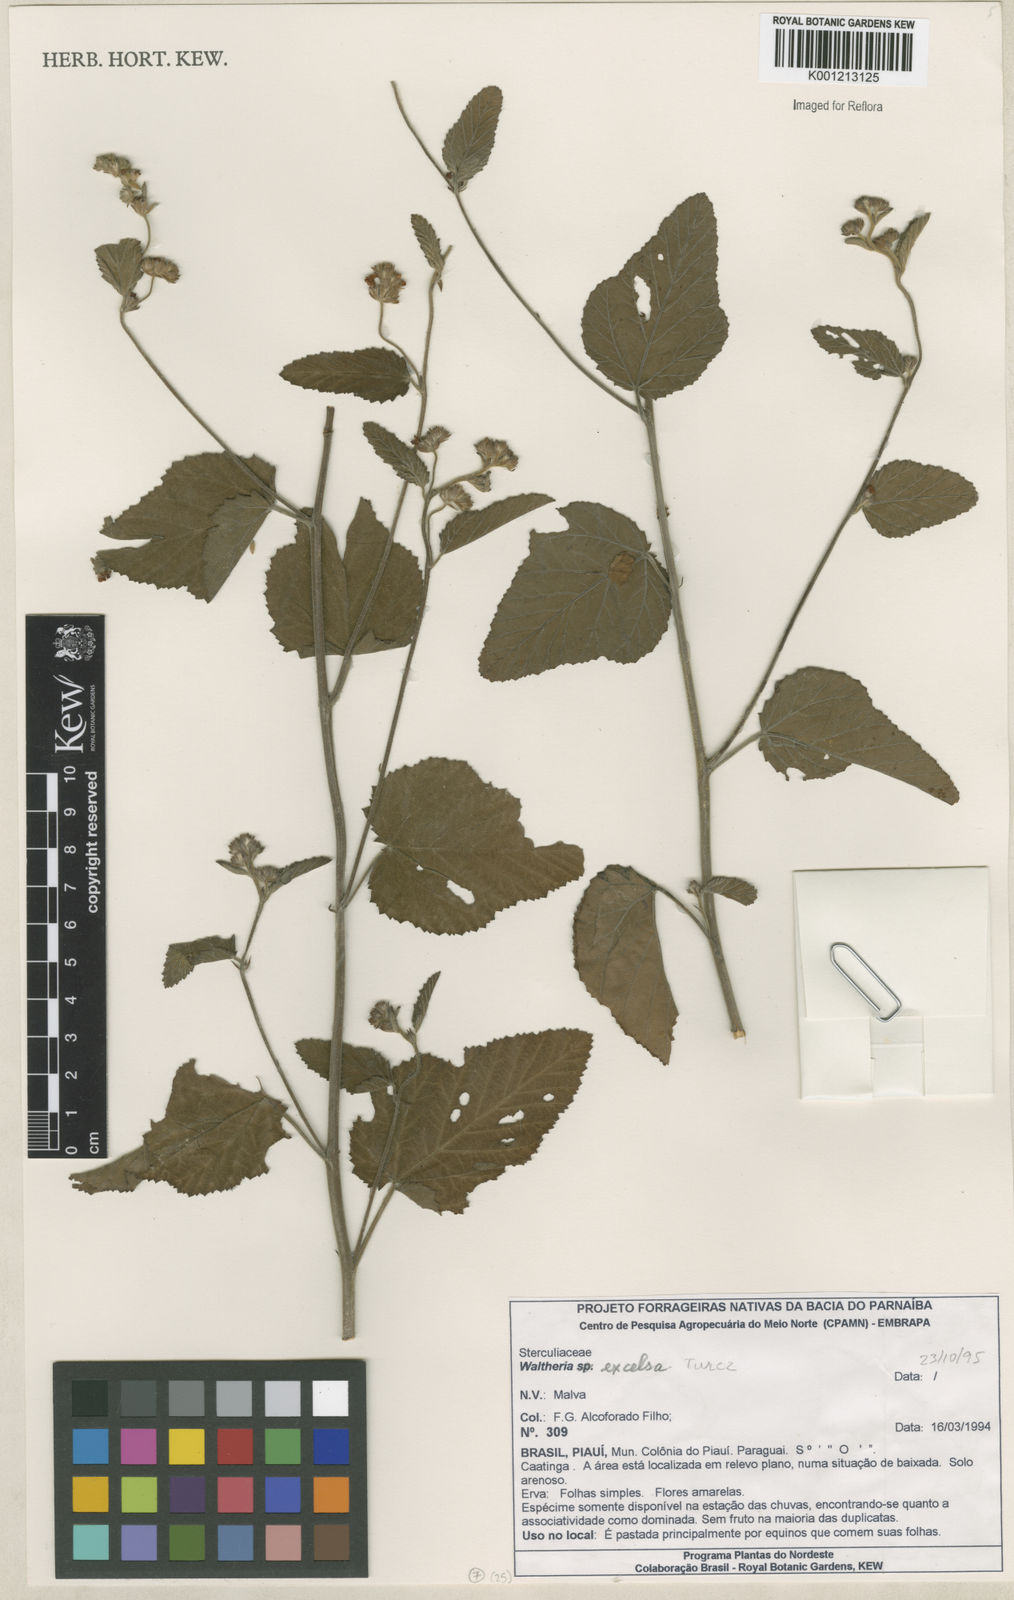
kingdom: Plantae
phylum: Tracheophyta
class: Magnoliopsida
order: Malvales
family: Malvaceae
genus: Waltheria
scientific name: Waltheria excelsa
